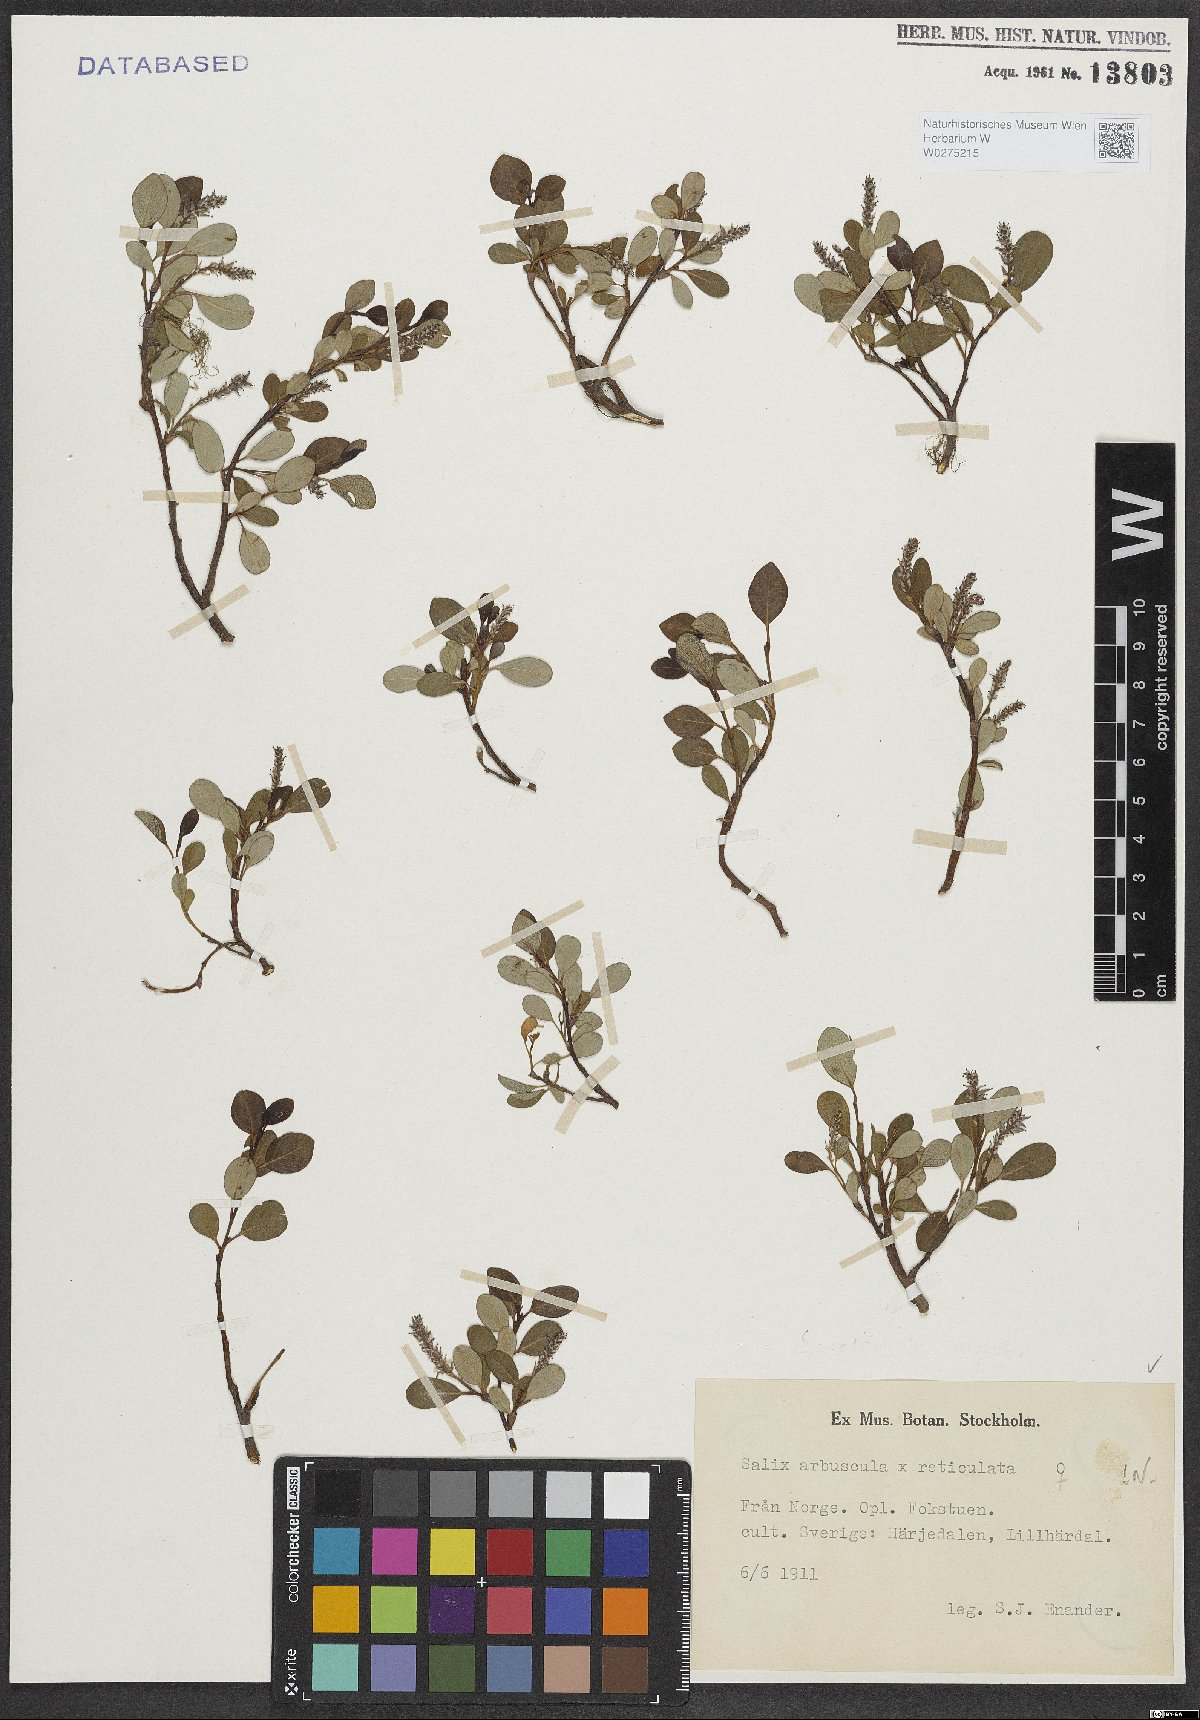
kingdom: Plantae
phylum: Tracheophyta
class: Magnoliopsida
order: Malpighiales
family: Salicaceae
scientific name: Salicaceae
